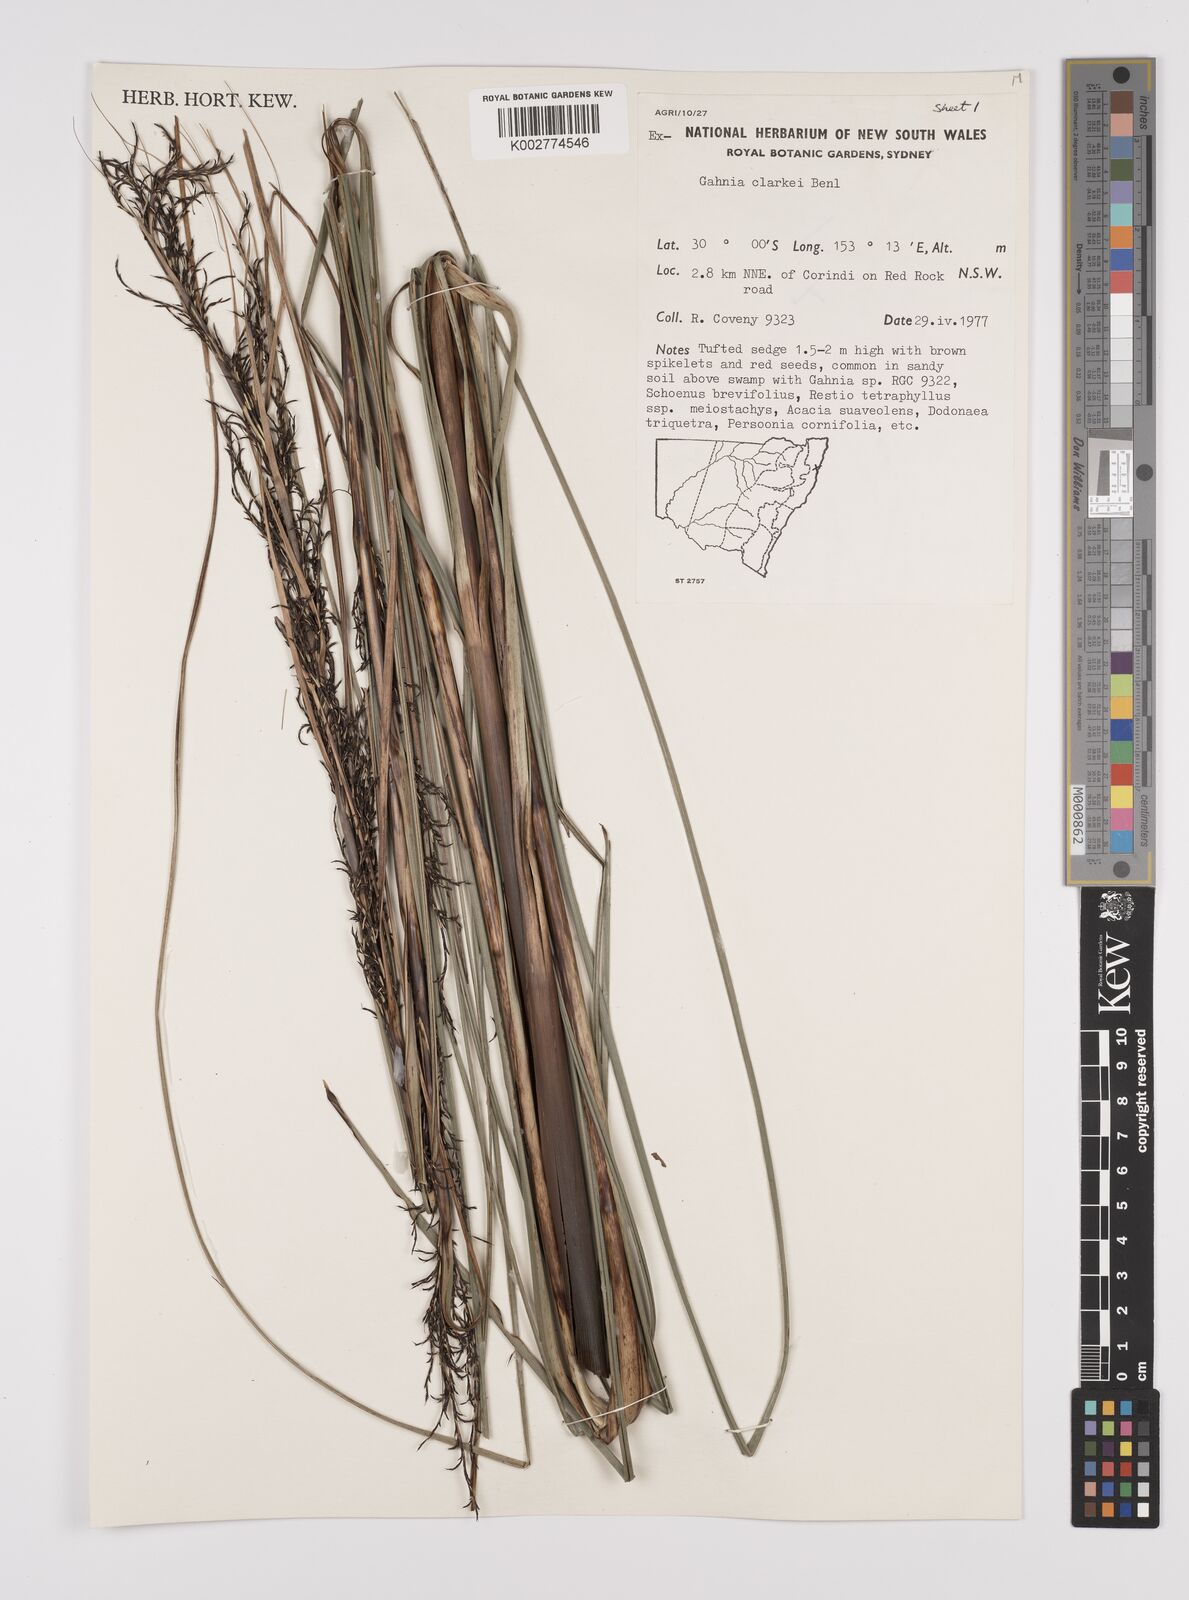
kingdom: Plantae
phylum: Tracheophyta
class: Liliopsida
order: Poales
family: Cyperaceae
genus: Gahnia
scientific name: Gahnia clarkei
